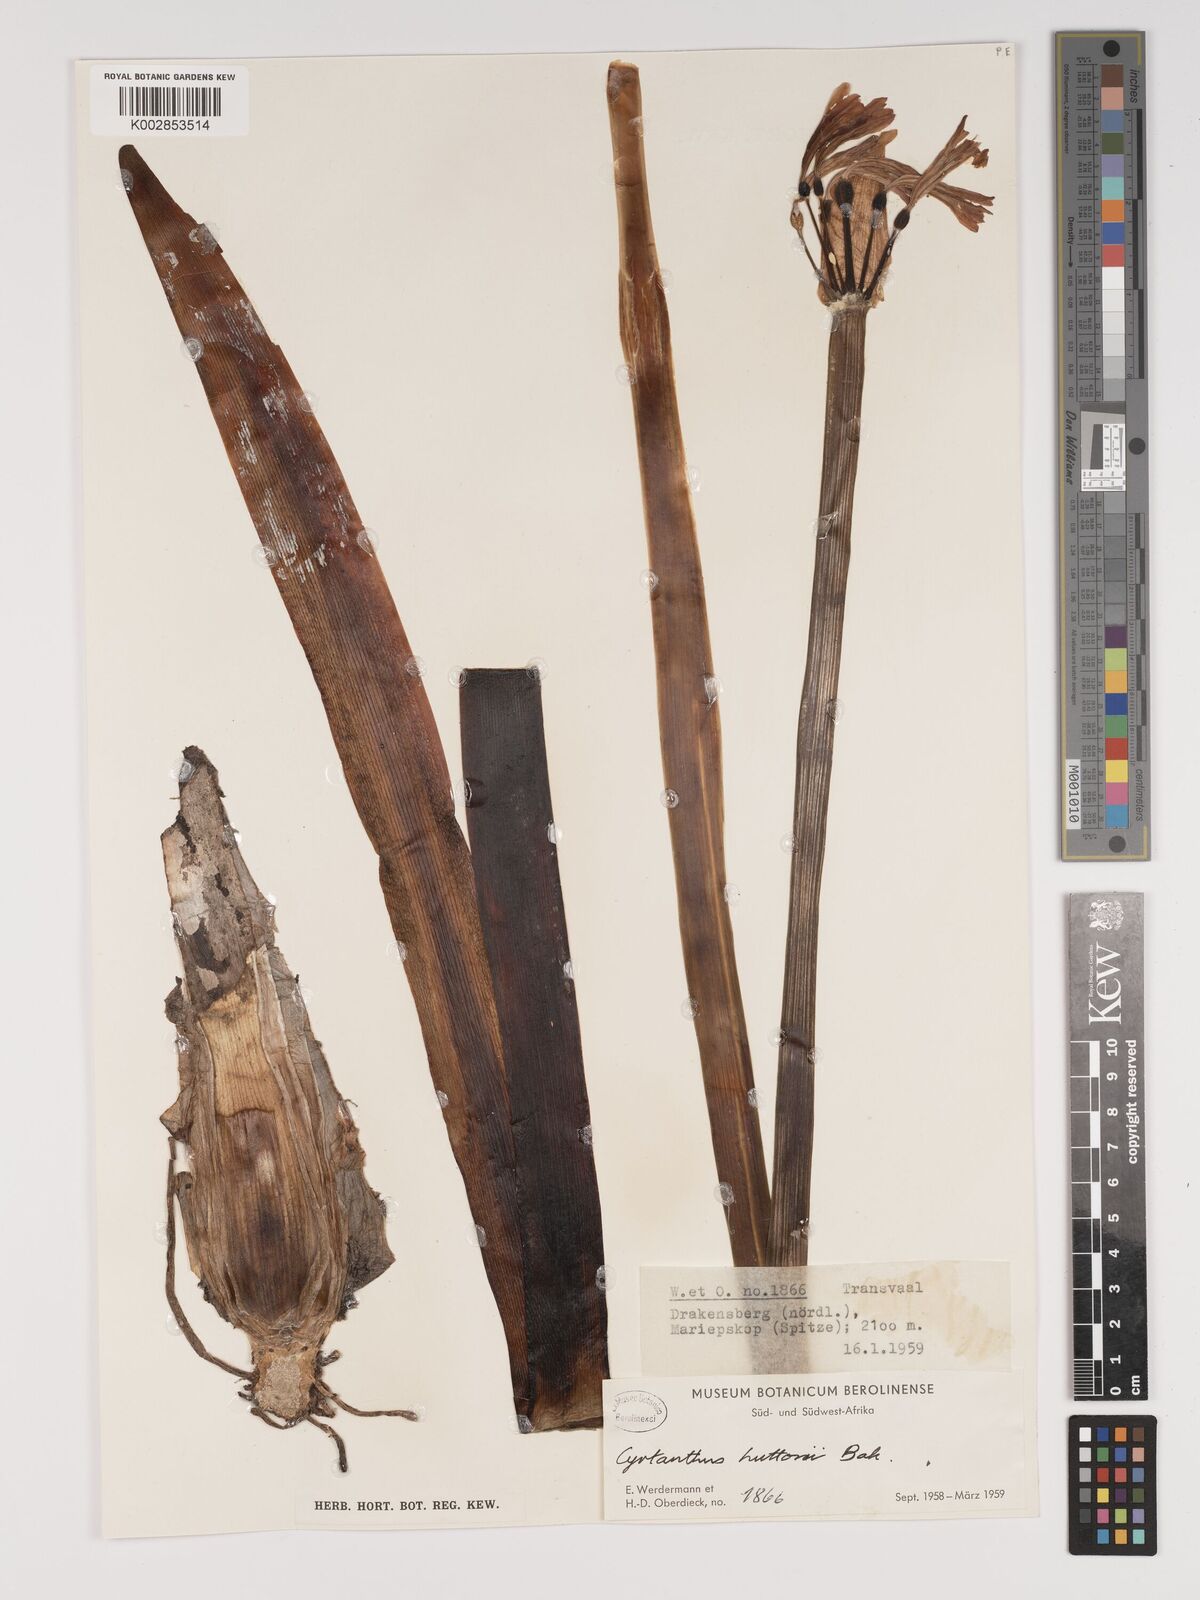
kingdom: Plantae
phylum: Tracheophyta
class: Liliopsida
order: Asparagales
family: Amaryllidaceae
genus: Cyrtanthus
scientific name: Cyrtanthus huttonii
